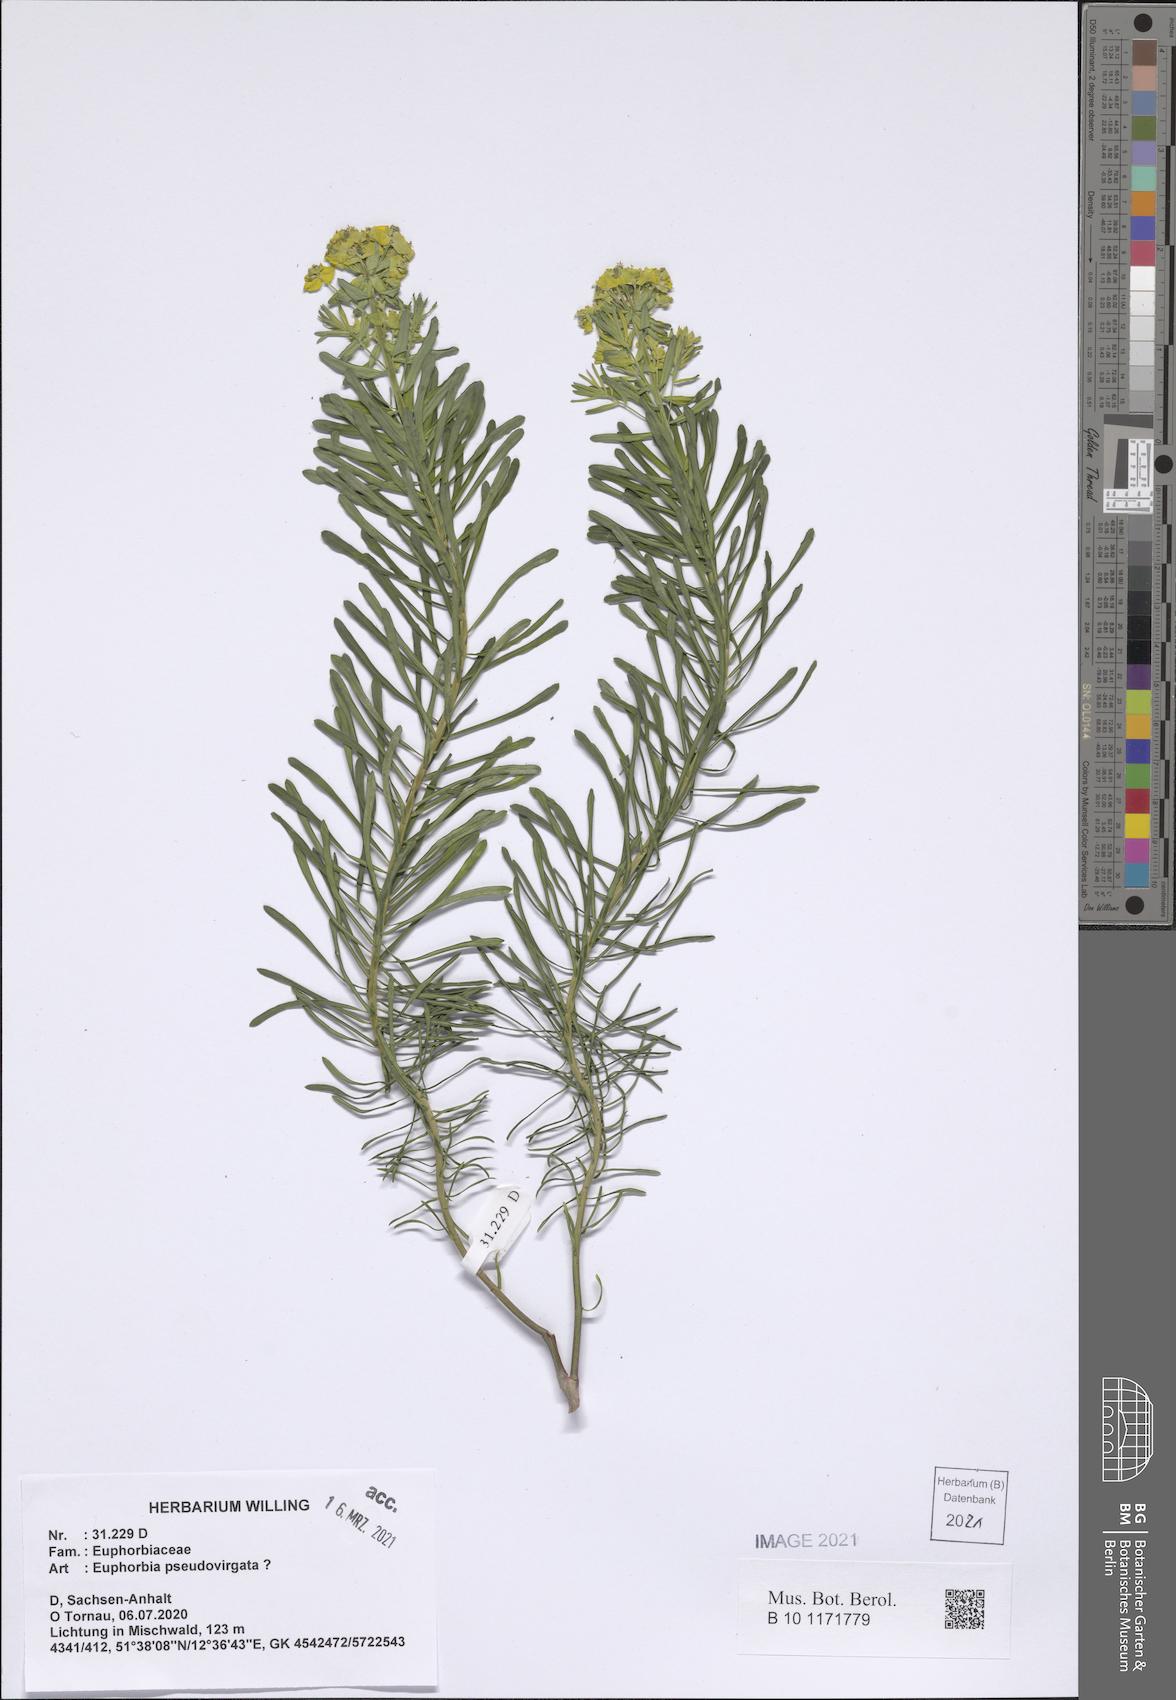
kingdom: Plantae
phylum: Tracheophyta
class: Magnoliopsida
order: Malpighiales
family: Euphorbiaceae
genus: Euphorbia
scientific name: Euphorbia virgata
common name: Leafy spurge
